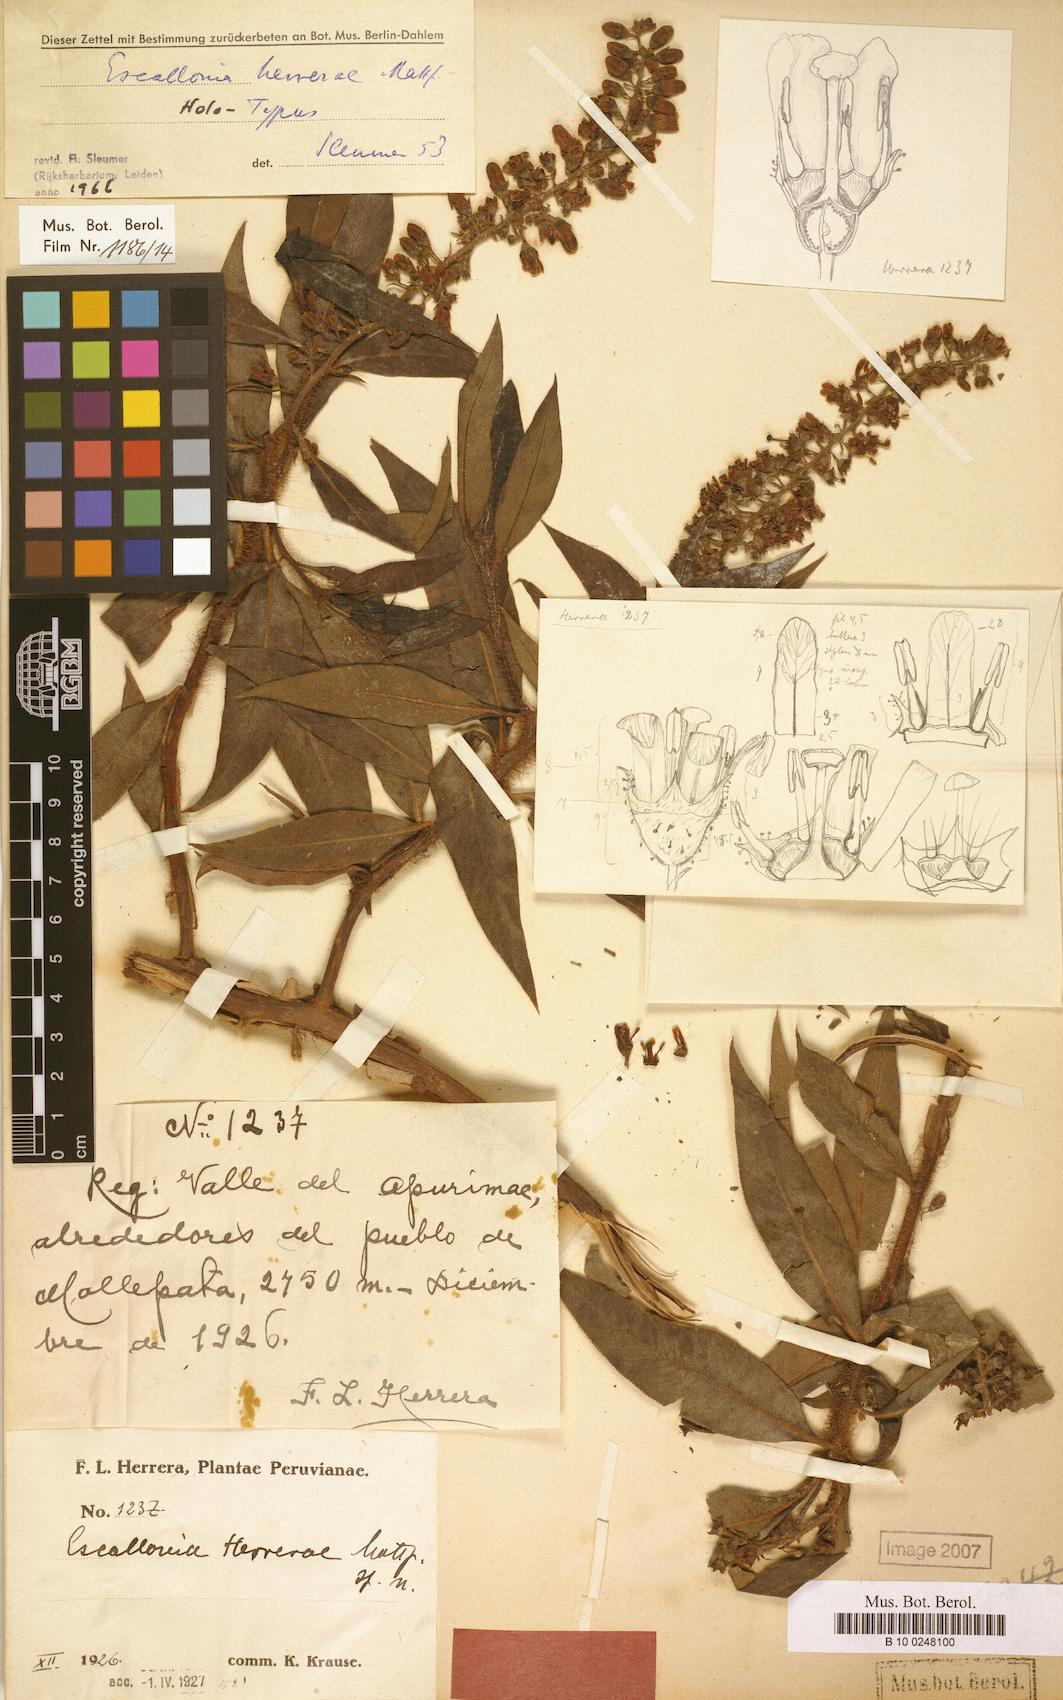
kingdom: Plantae
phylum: Tracheophyta
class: Magnoliopsida
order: Escalloniales
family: Escalloniaceae
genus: Escallonia
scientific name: Escallonia herrerae
